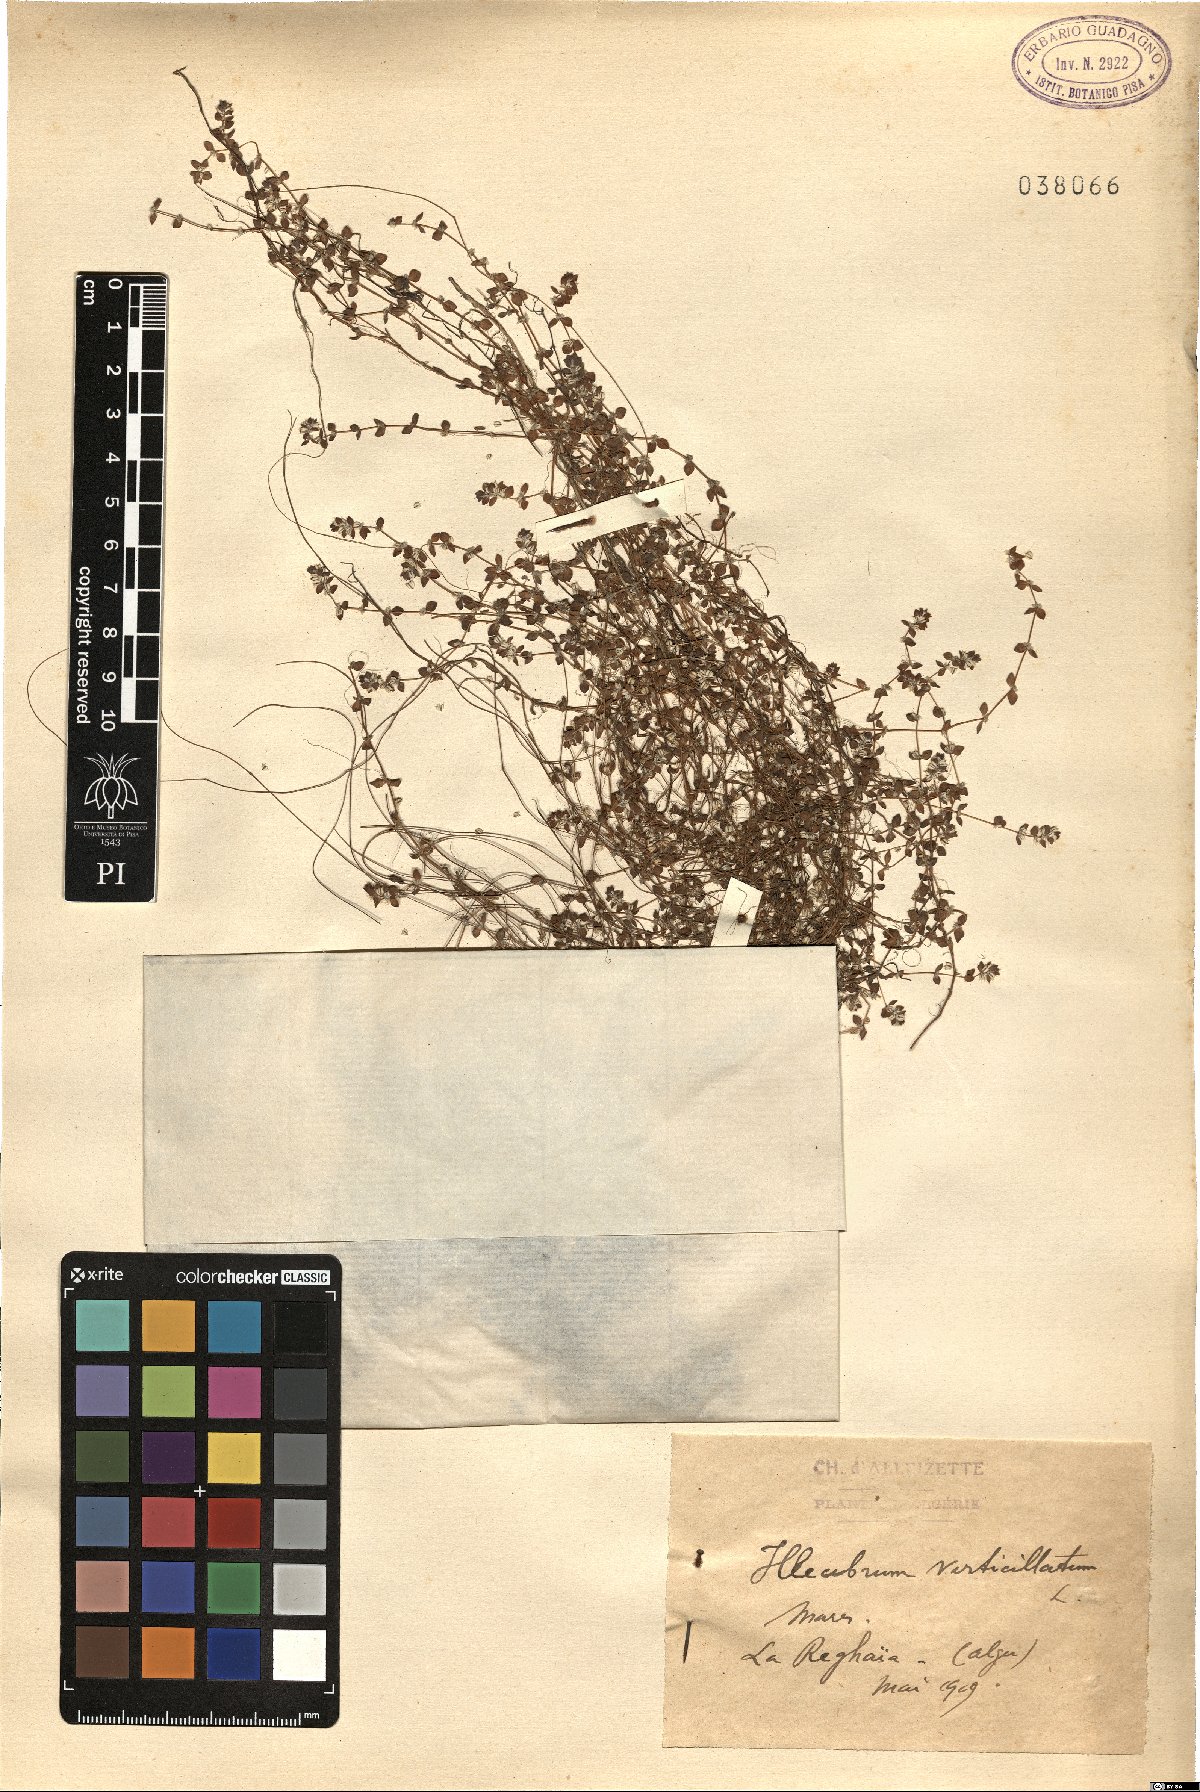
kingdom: Plantae
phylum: Tracheophyta
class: Magnoliopsida
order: Caryophyllales
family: Caryophyllaceae
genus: Illecebrum
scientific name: Illecebrum verticillatum
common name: Coral necklace
